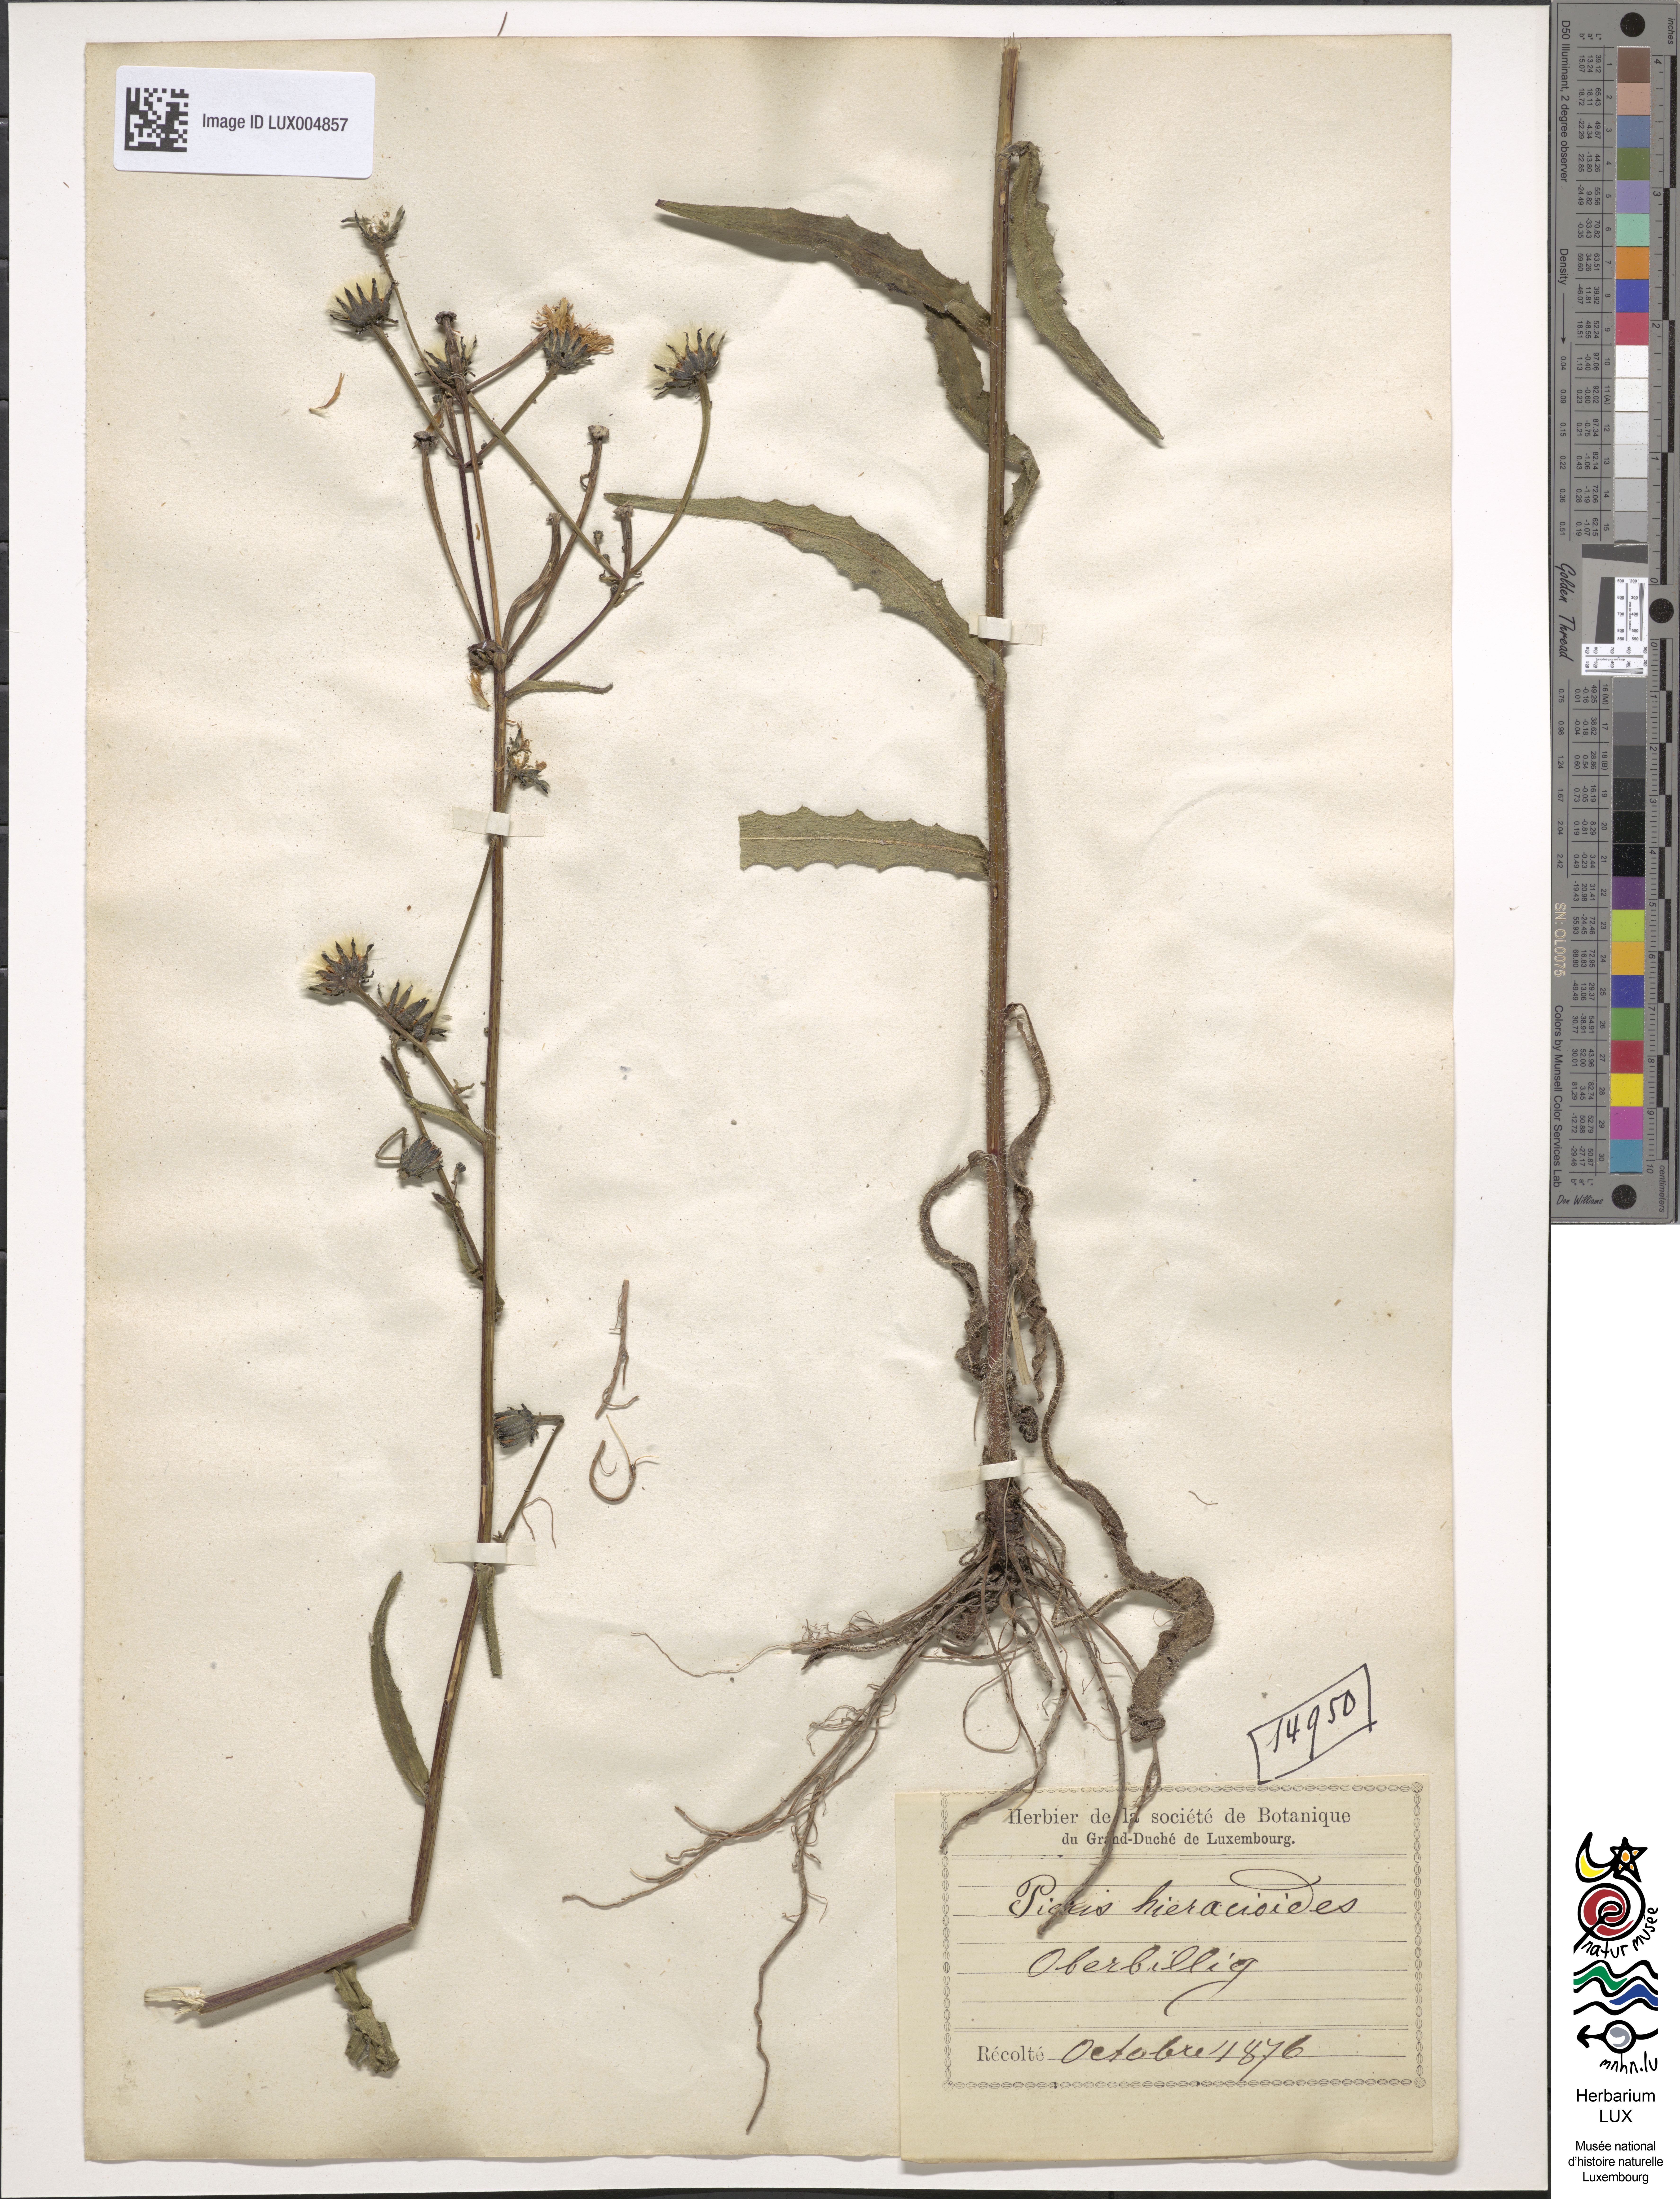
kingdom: Plantae
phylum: Tracheophyta
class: Magnoliopsida
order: Asterales
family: Asteraceae
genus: Picris
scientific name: Picris hieracioides
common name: Hawkweed oxtongue
